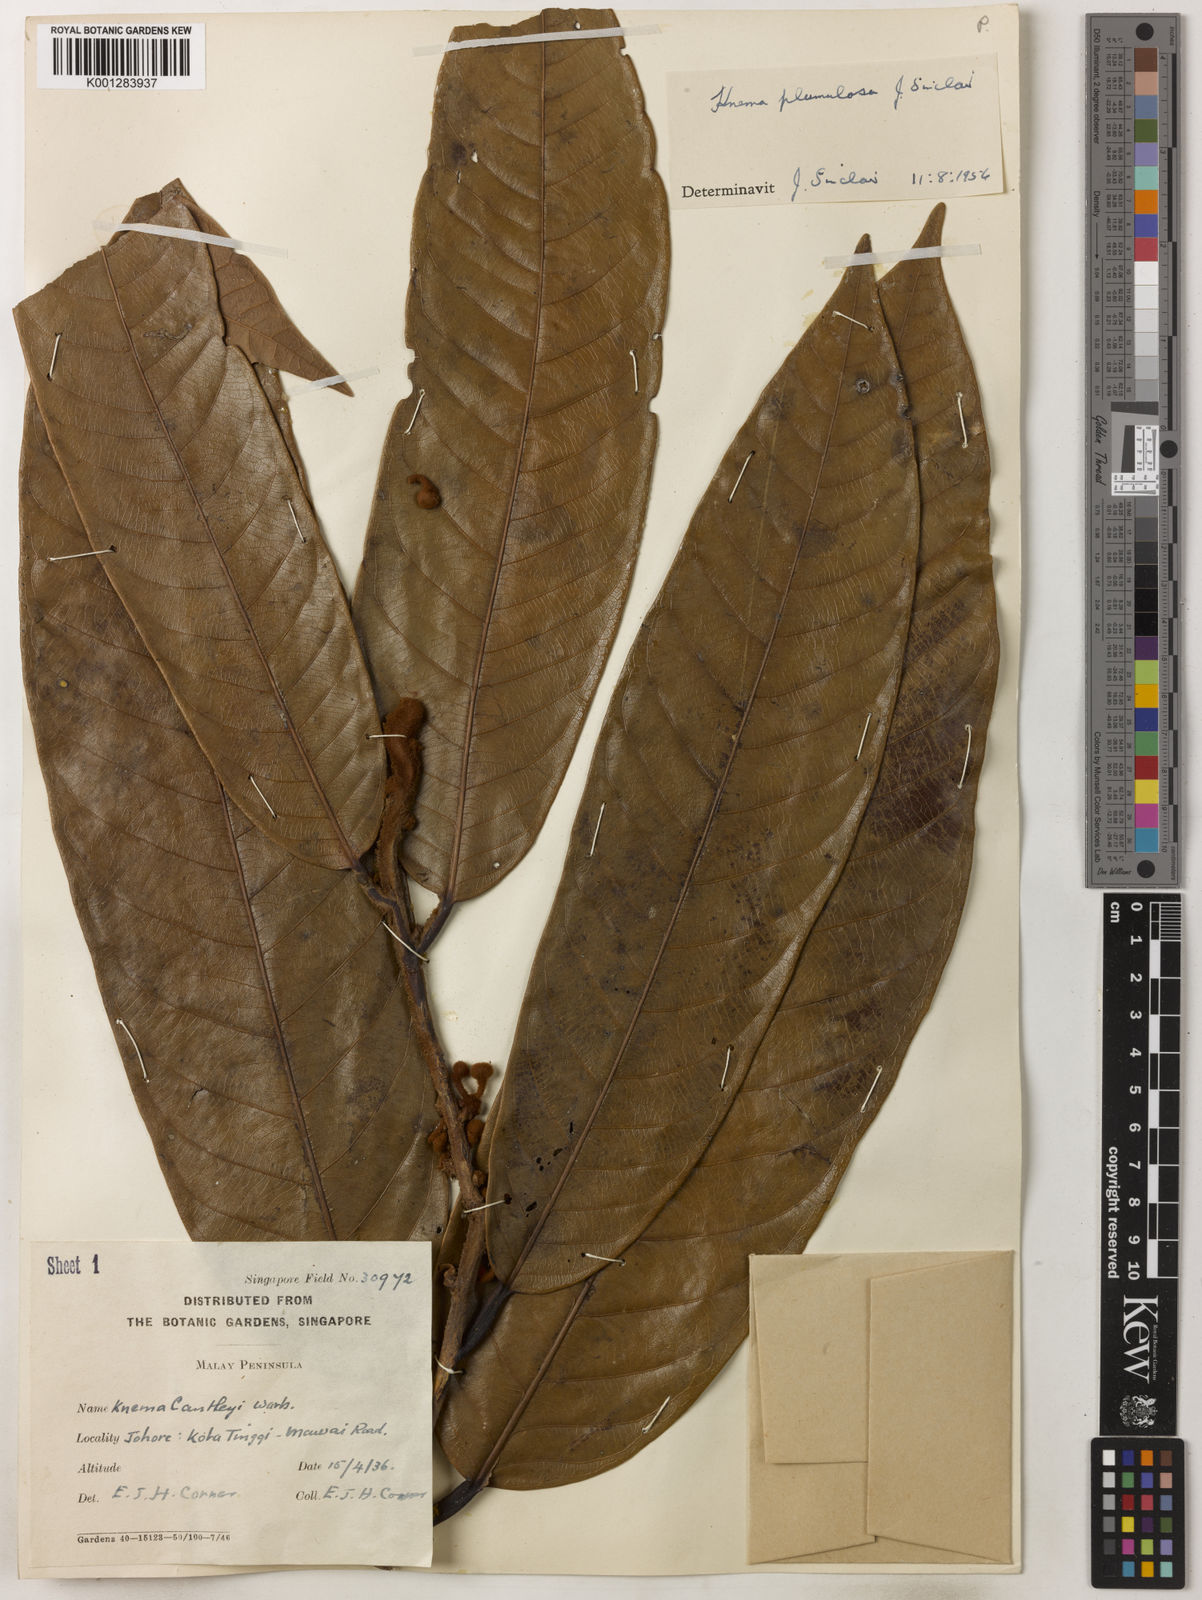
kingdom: Plantae
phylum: Tracheophyta
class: Magnoliopsida
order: Magnoliales
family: Myristicaceae
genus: Knema
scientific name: Knema plumulosa
